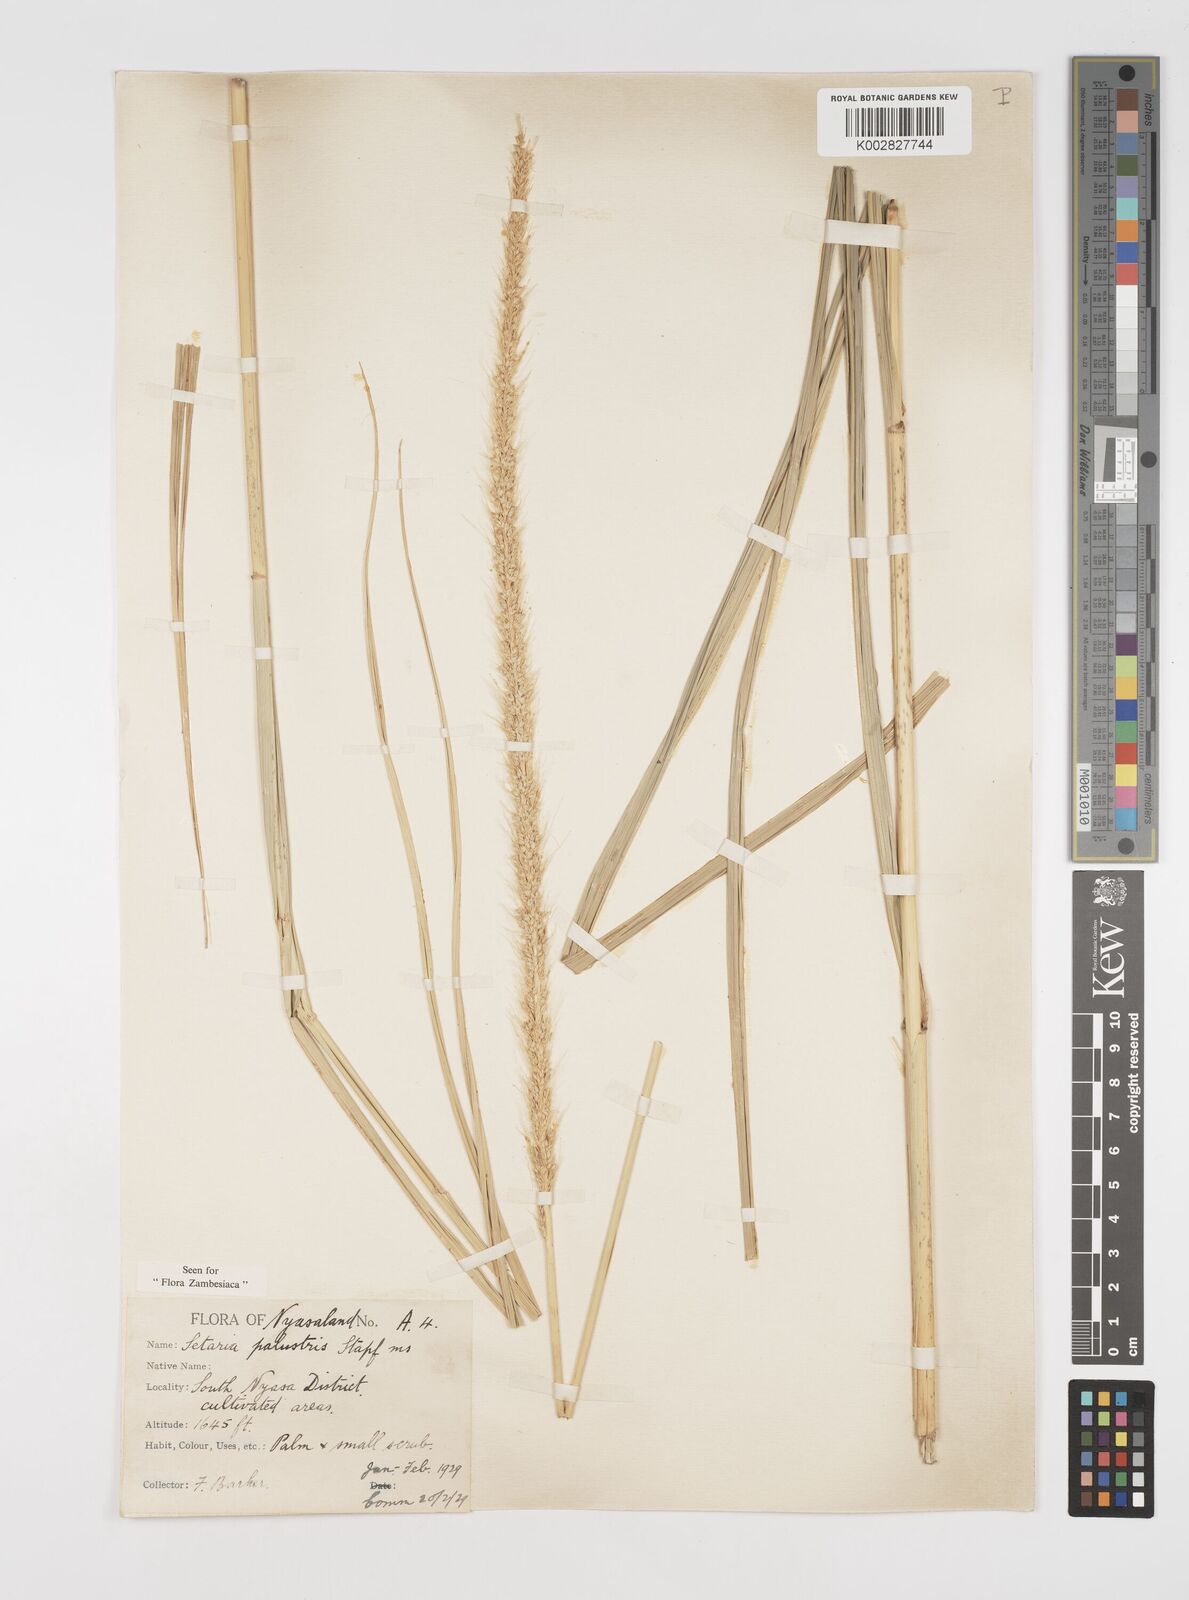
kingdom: Plantae
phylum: Tracheophyta
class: Liliopsida
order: Poales
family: Poaceae
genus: Setaria
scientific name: Setaria incrassata
